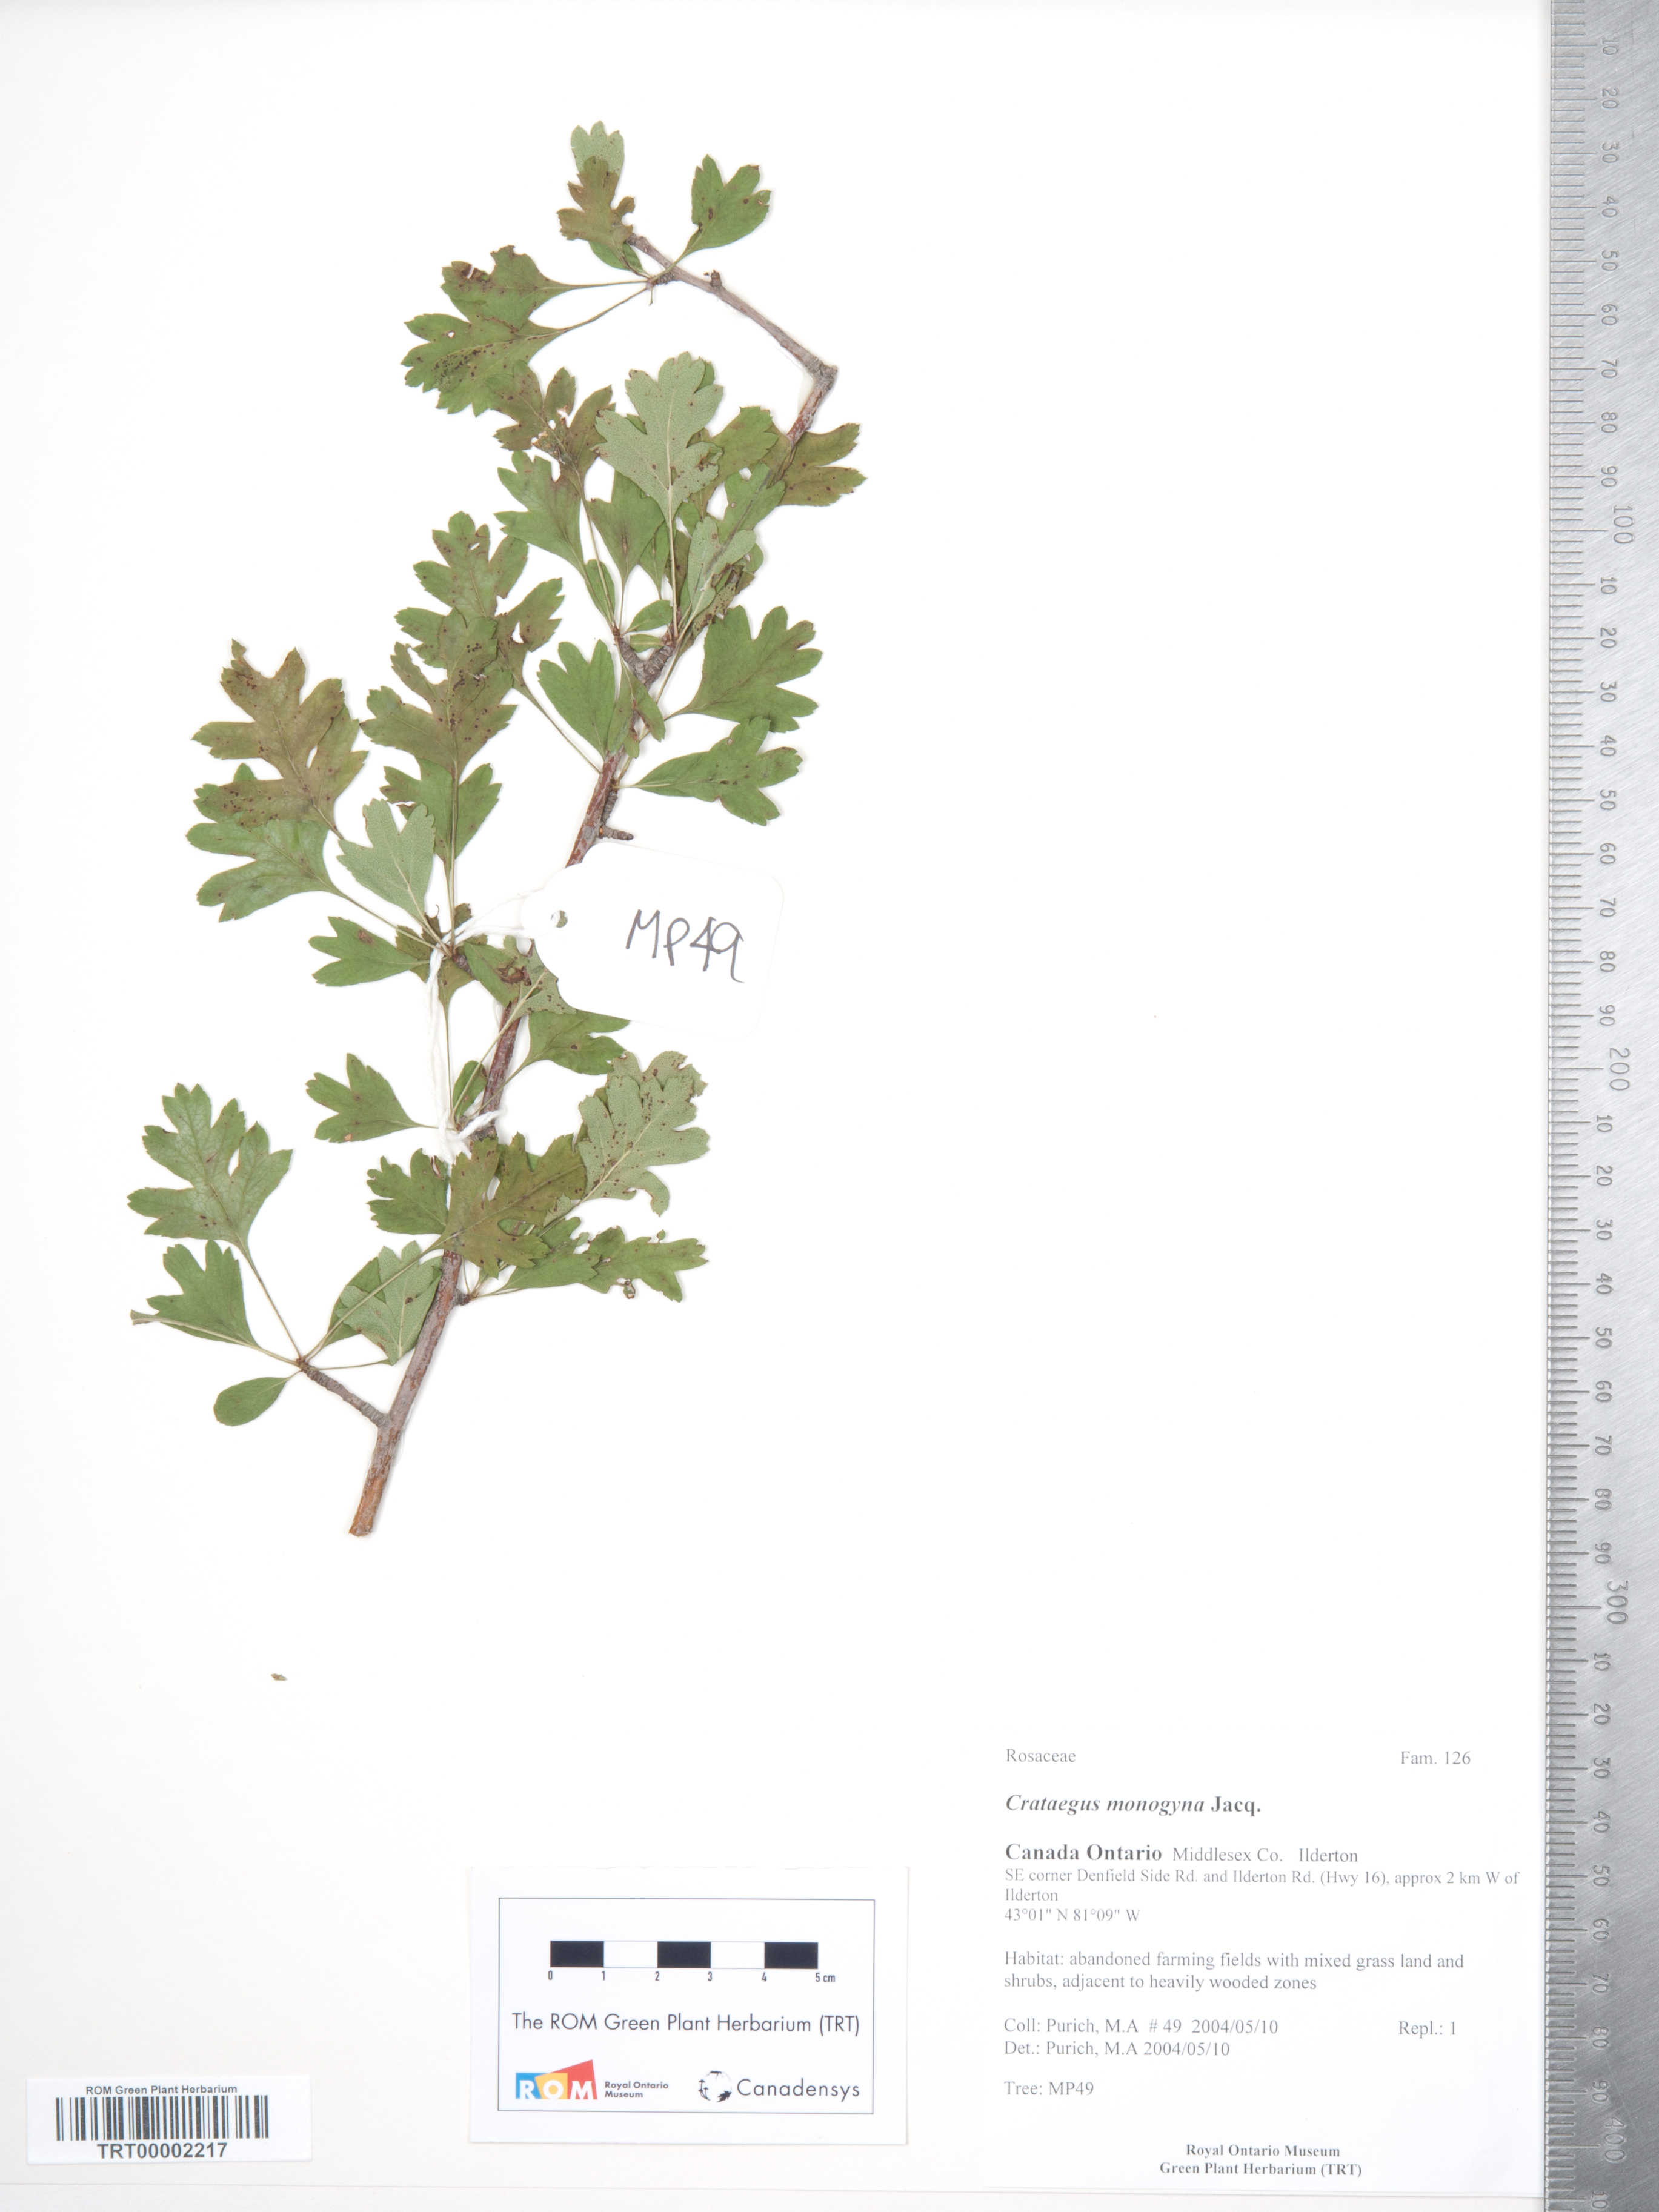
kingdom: Plantae
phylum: Tracheophyta
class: Magnoliopsida
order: Rosales
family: Rosaceae
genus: Crataegus
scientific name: Crataegus monogyna
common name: Hawthorn
